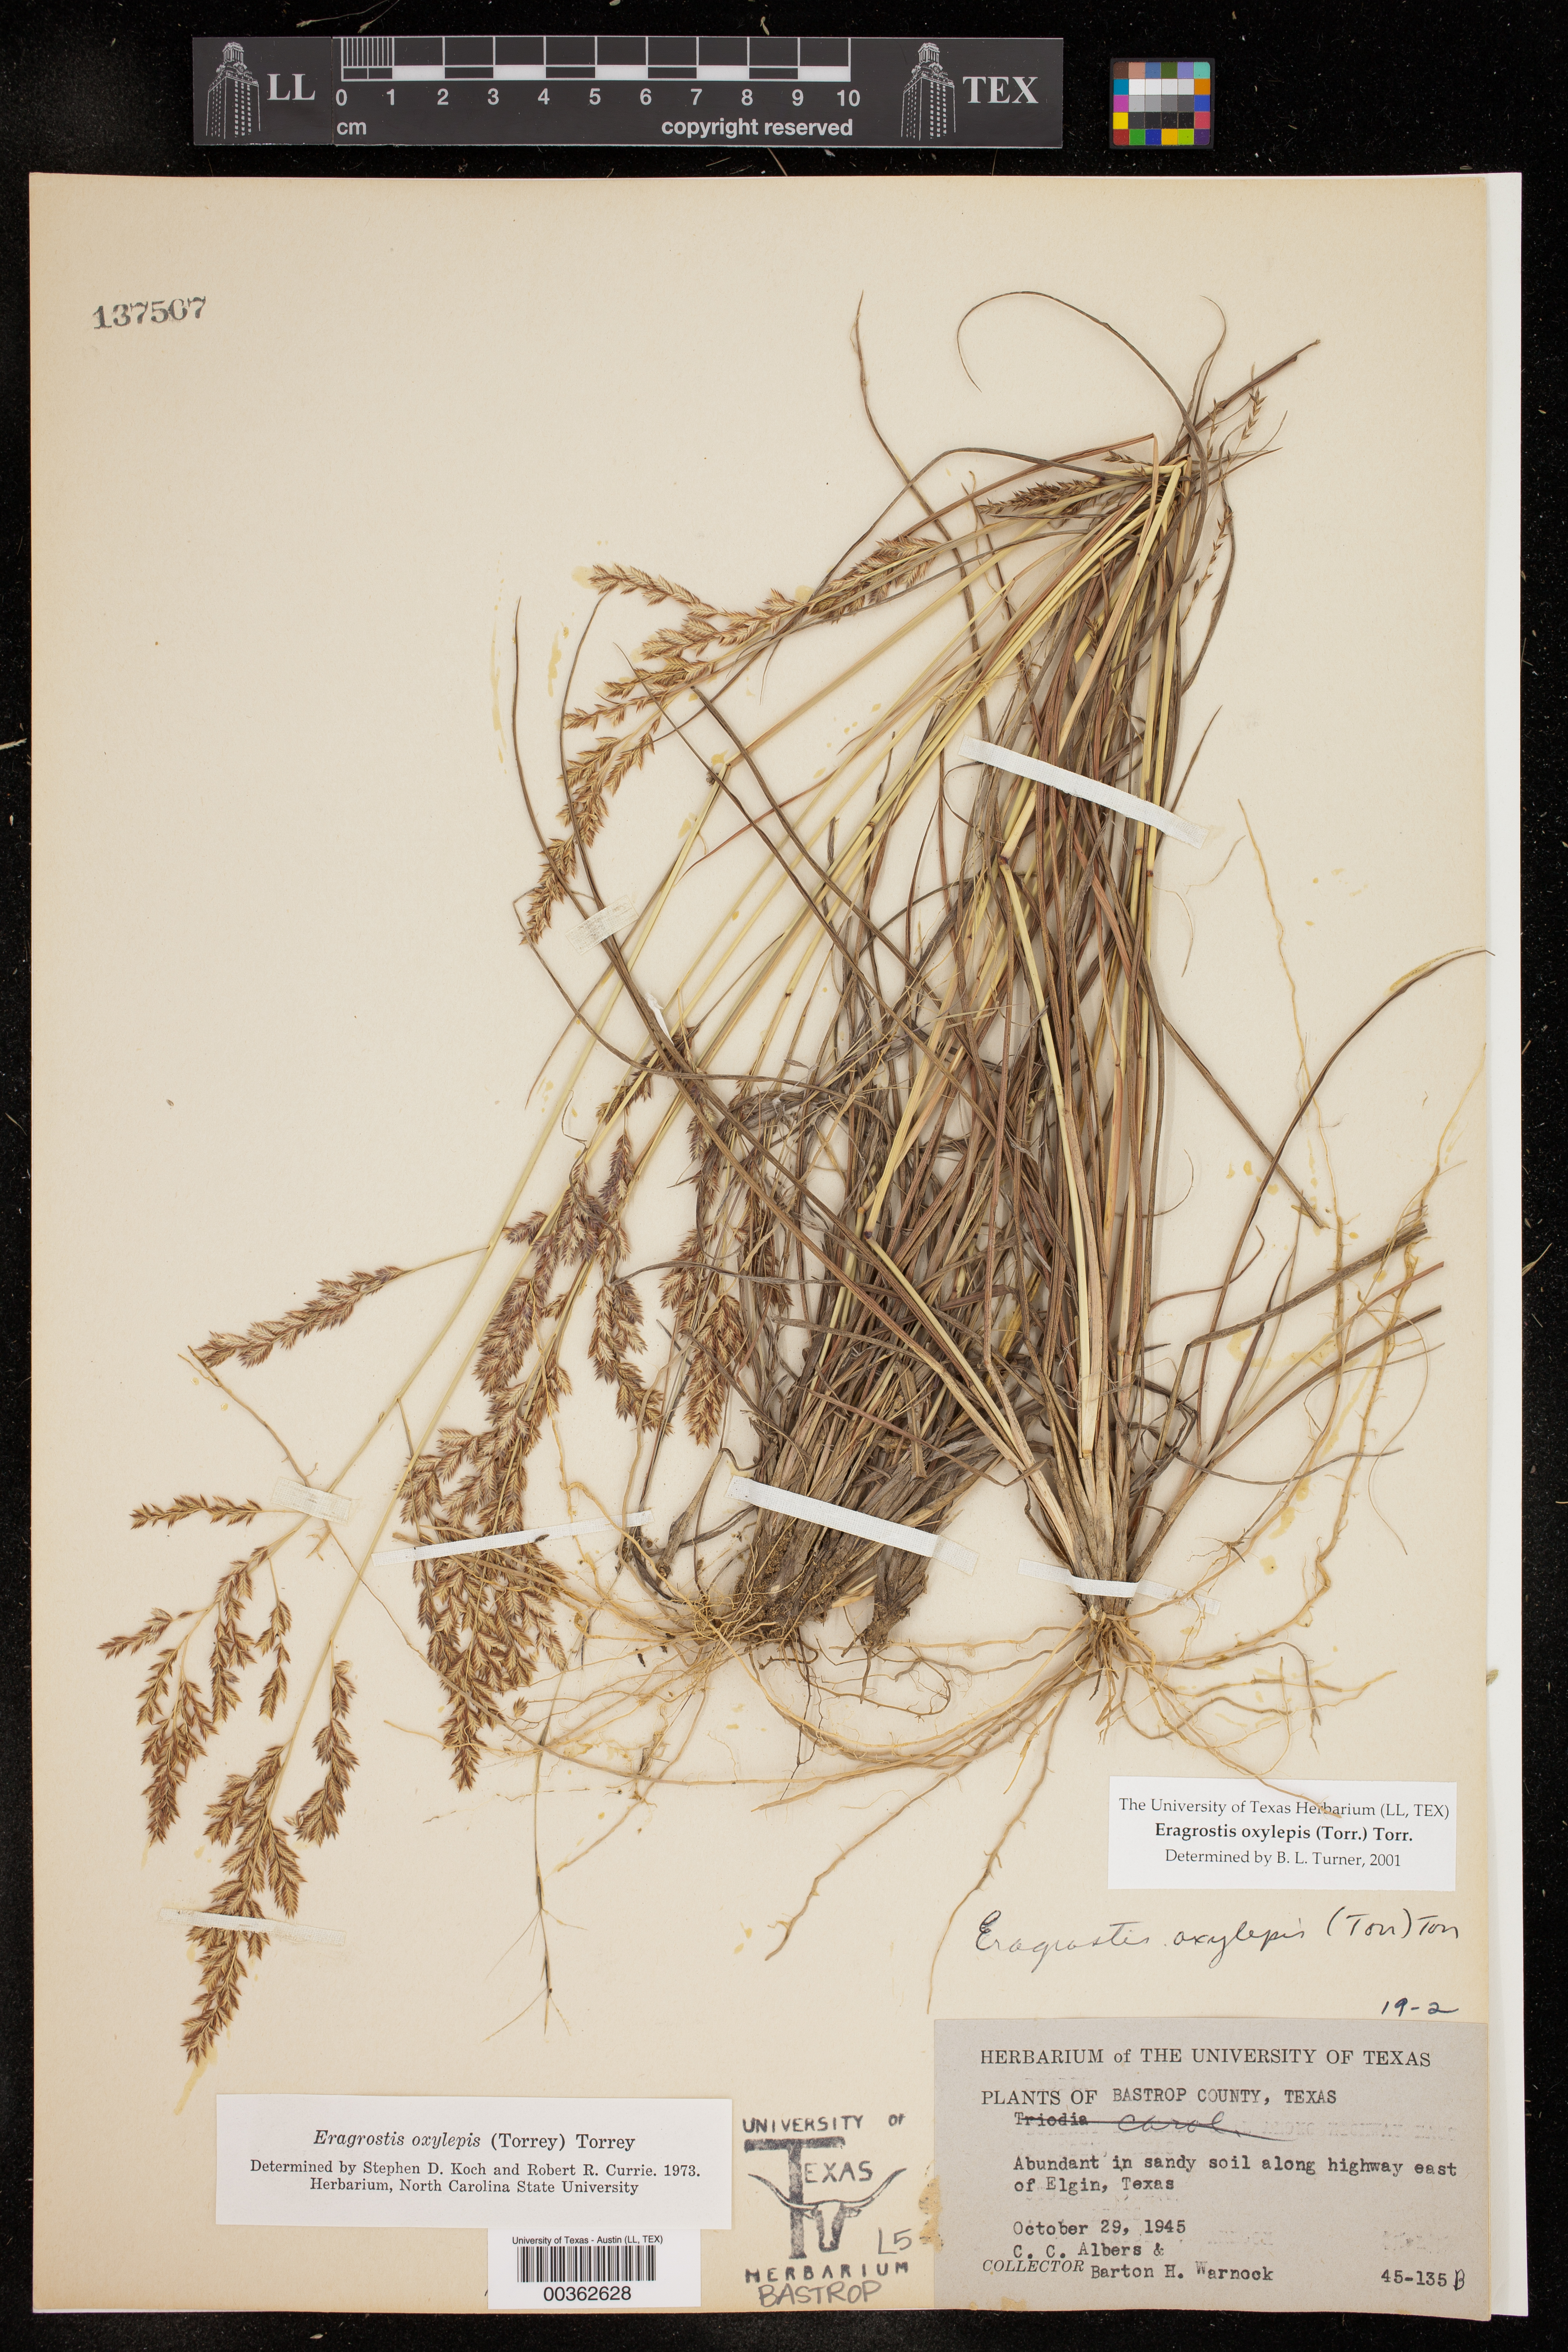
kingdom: Plantae
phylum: Tracheophyta
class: Liliopsida
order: Poales
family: Poaceae
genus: Eragrostis
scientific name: Eragrostis secundiflora
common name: Red love grass
